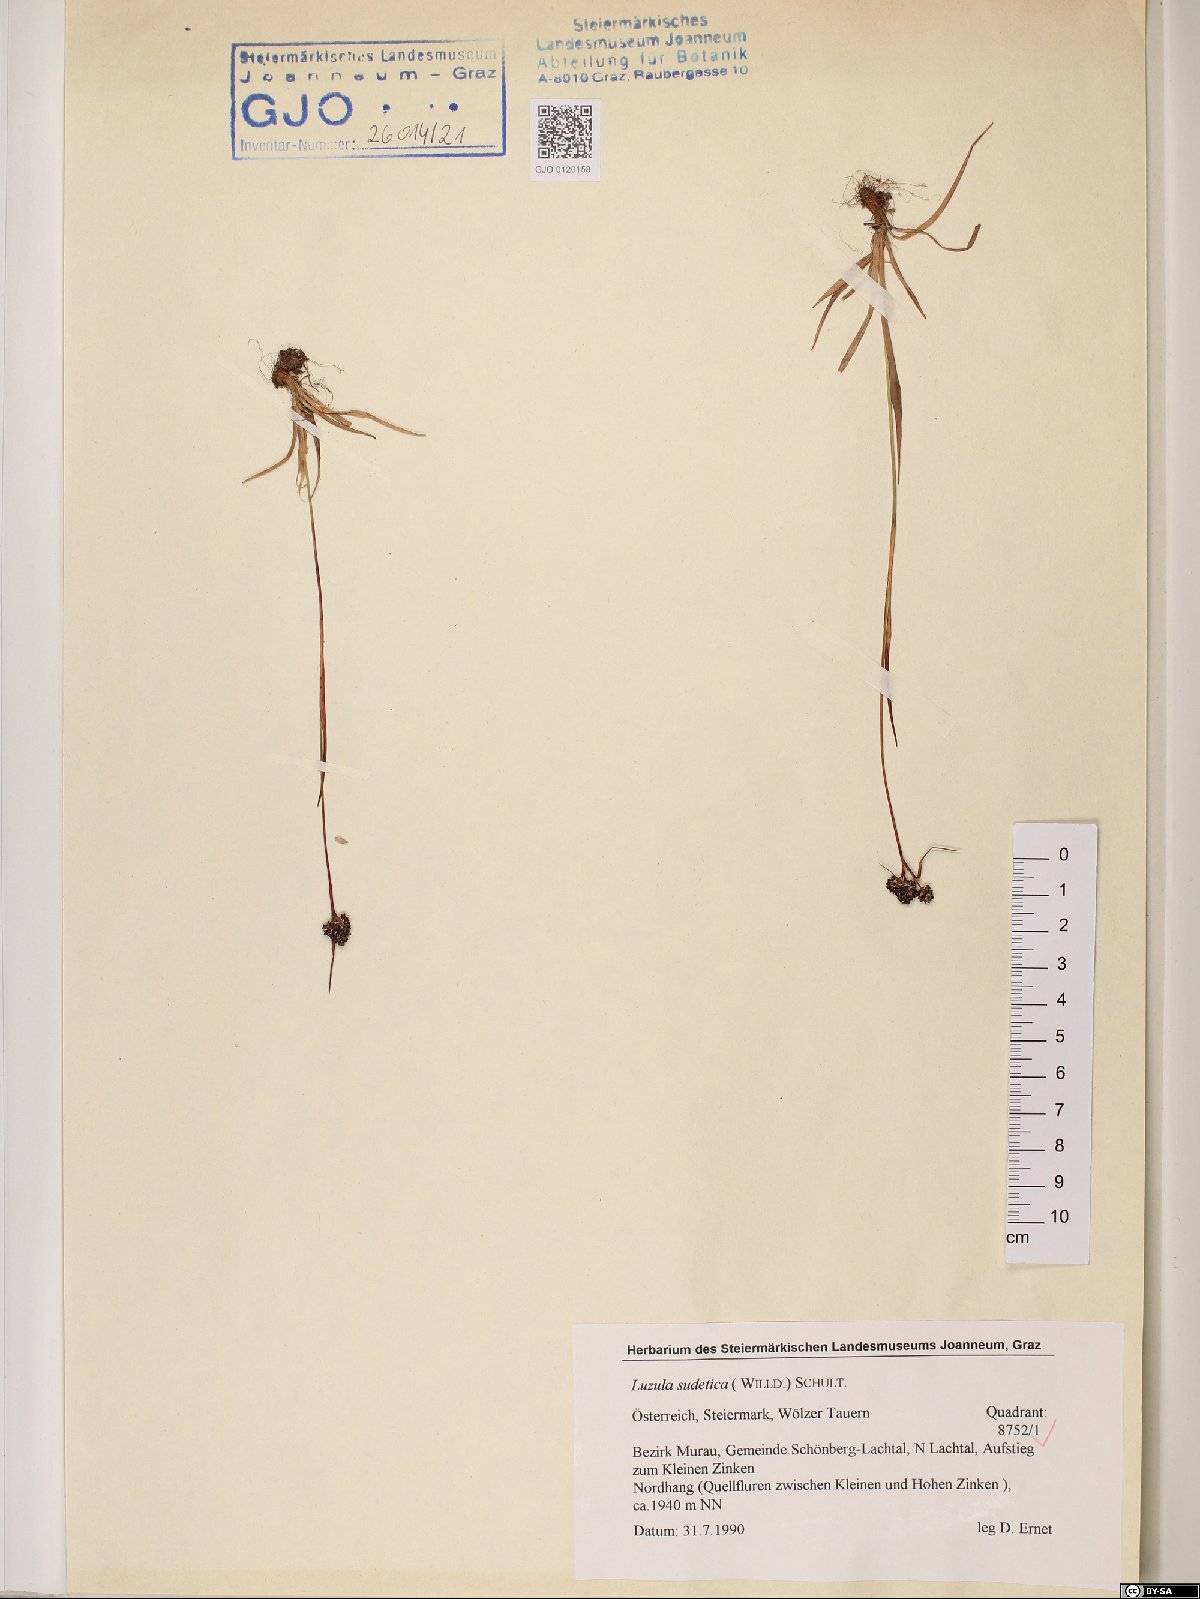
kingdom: Plantae
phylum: Tracheophyta
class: Liliopsida
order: Poales
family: Juncaceae
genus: Luzula
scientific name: Luzula sudetica
